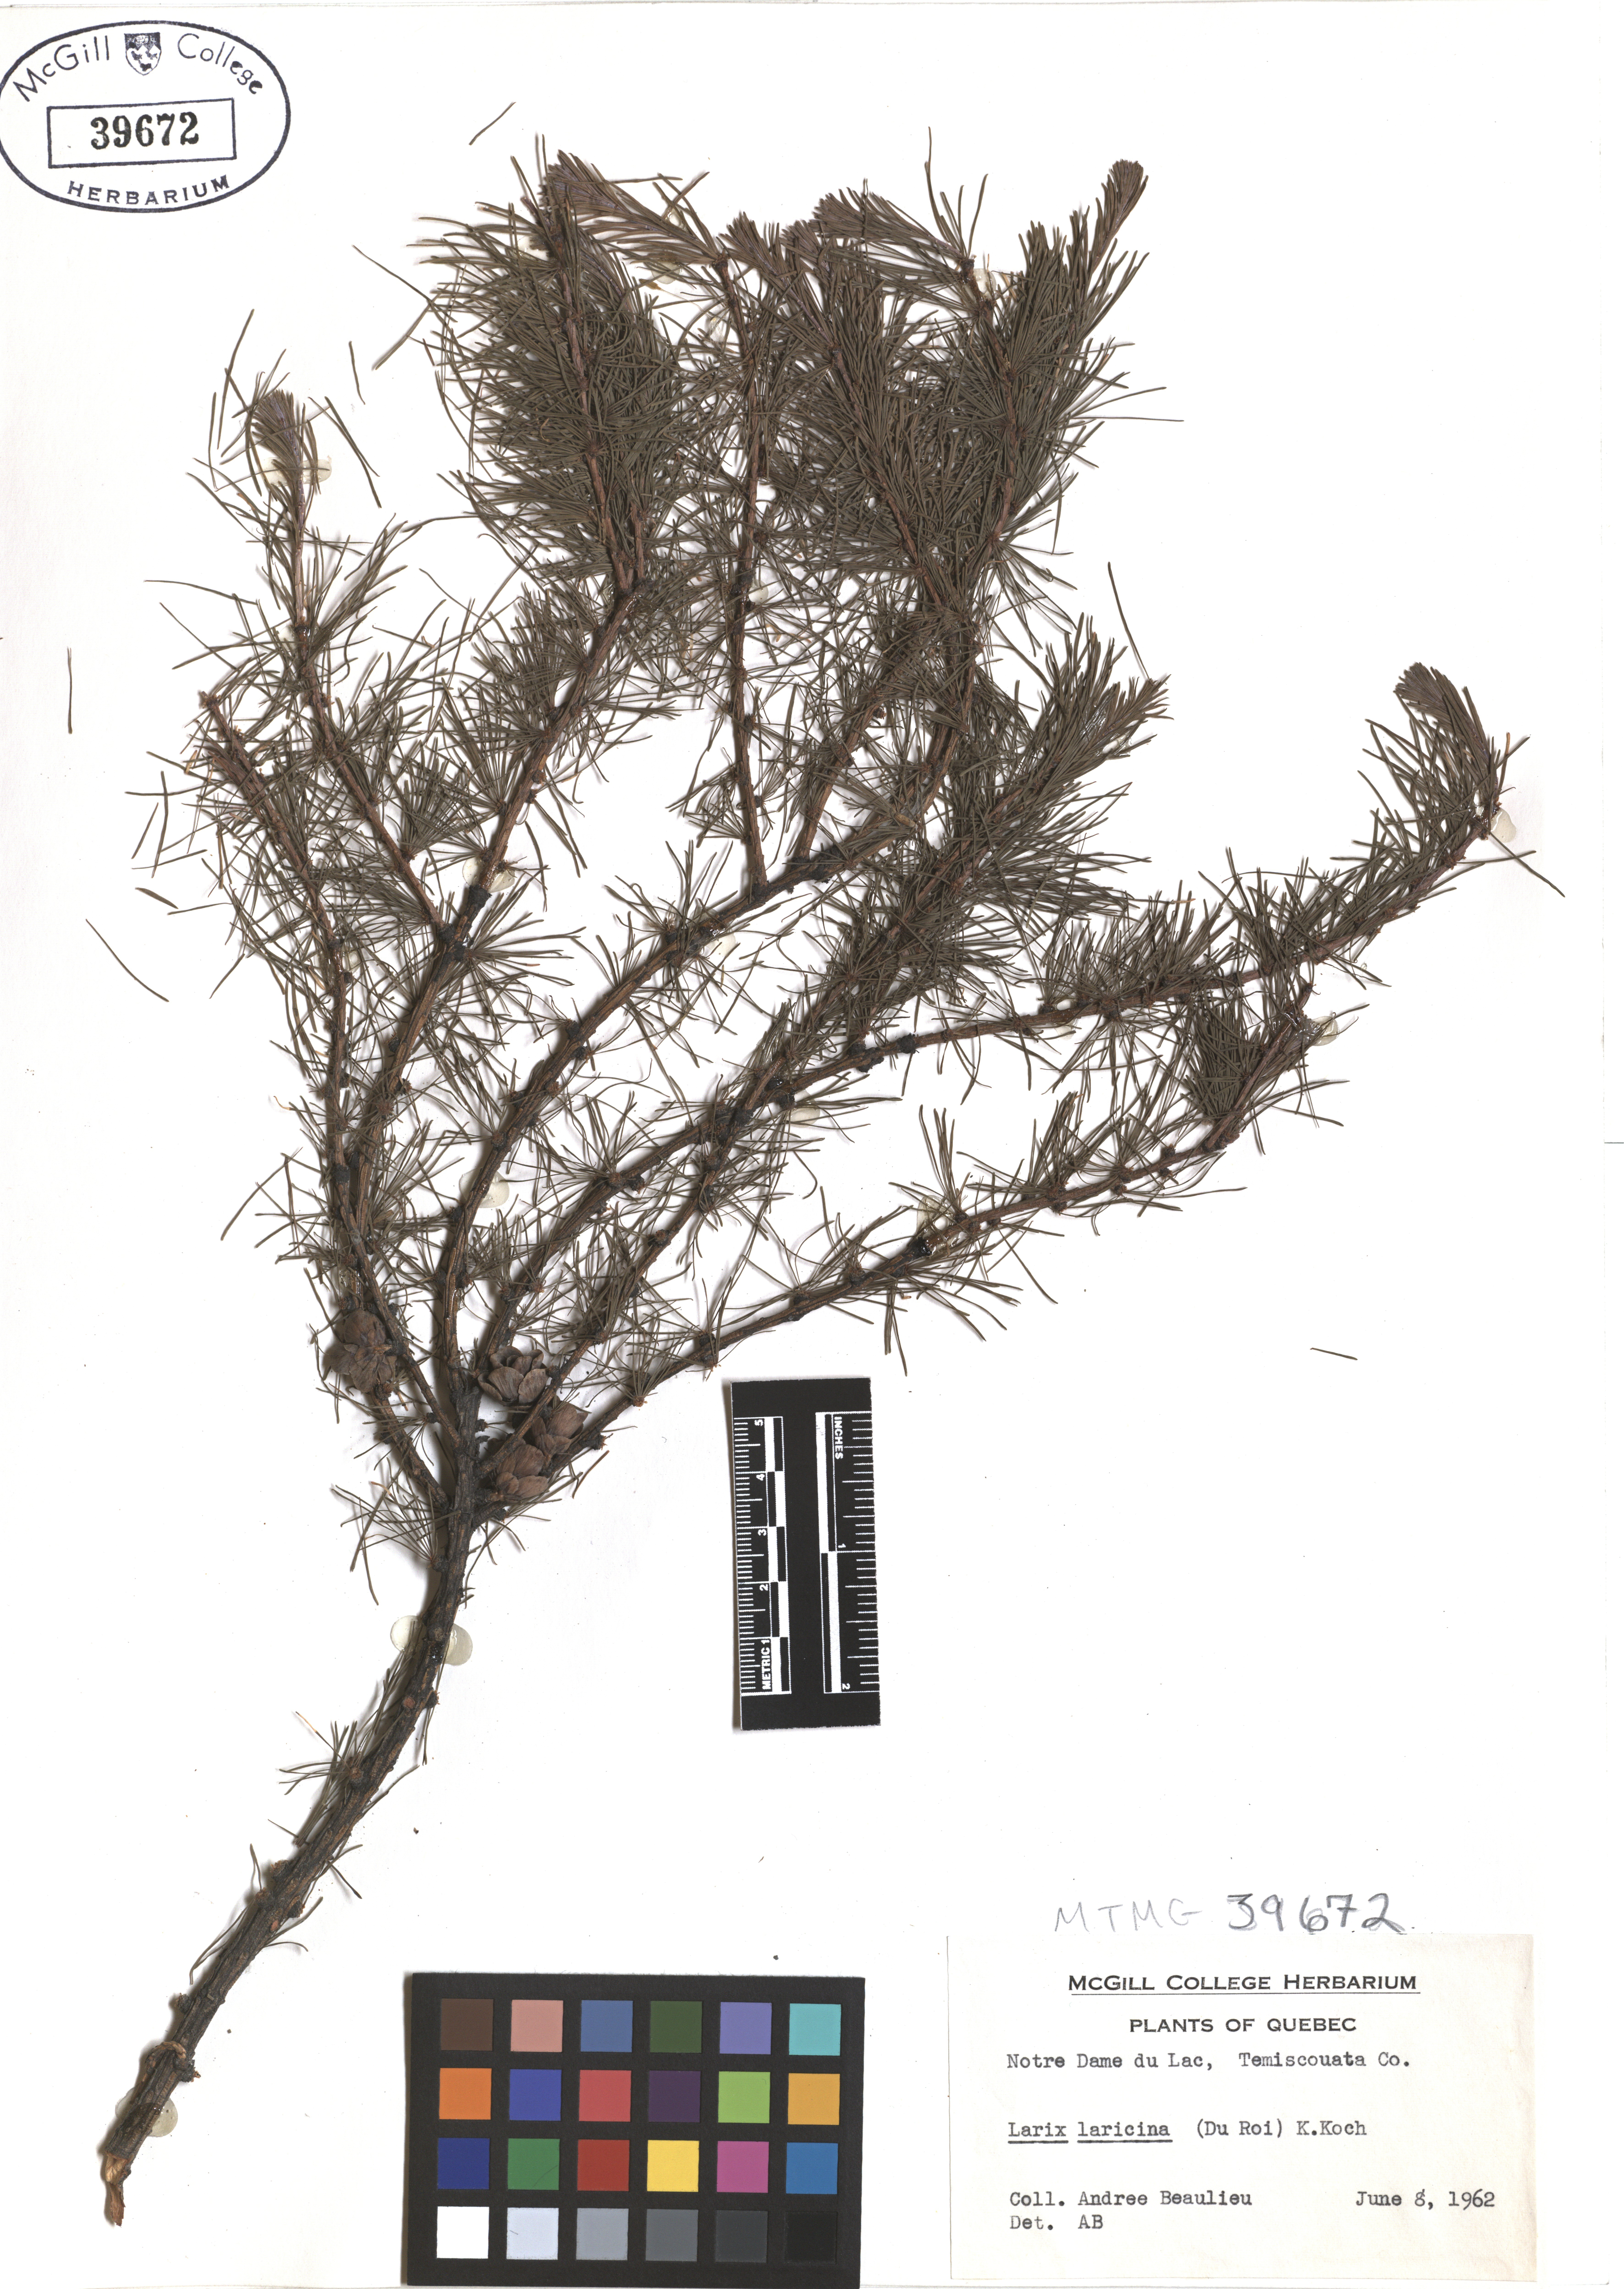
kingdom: Plantae
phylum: Tracheophyta
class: Pinopsida
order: Pinales
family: Pinaceae
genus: Larix
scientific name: Larix laricina
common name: American larch
